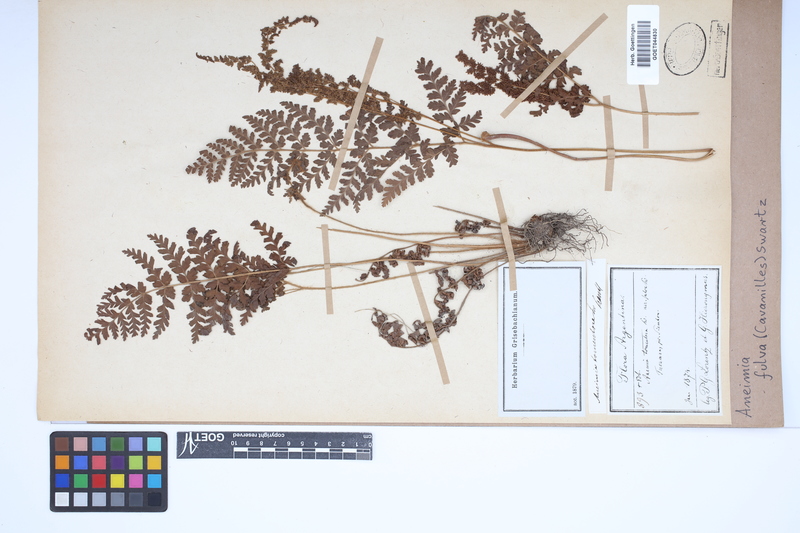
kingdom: Plantae
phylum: Tracheophyta
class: Polypodiopsida
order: Schizaeales
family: Anemiaceae
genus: Anemia
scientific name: Anemia ferruginea
